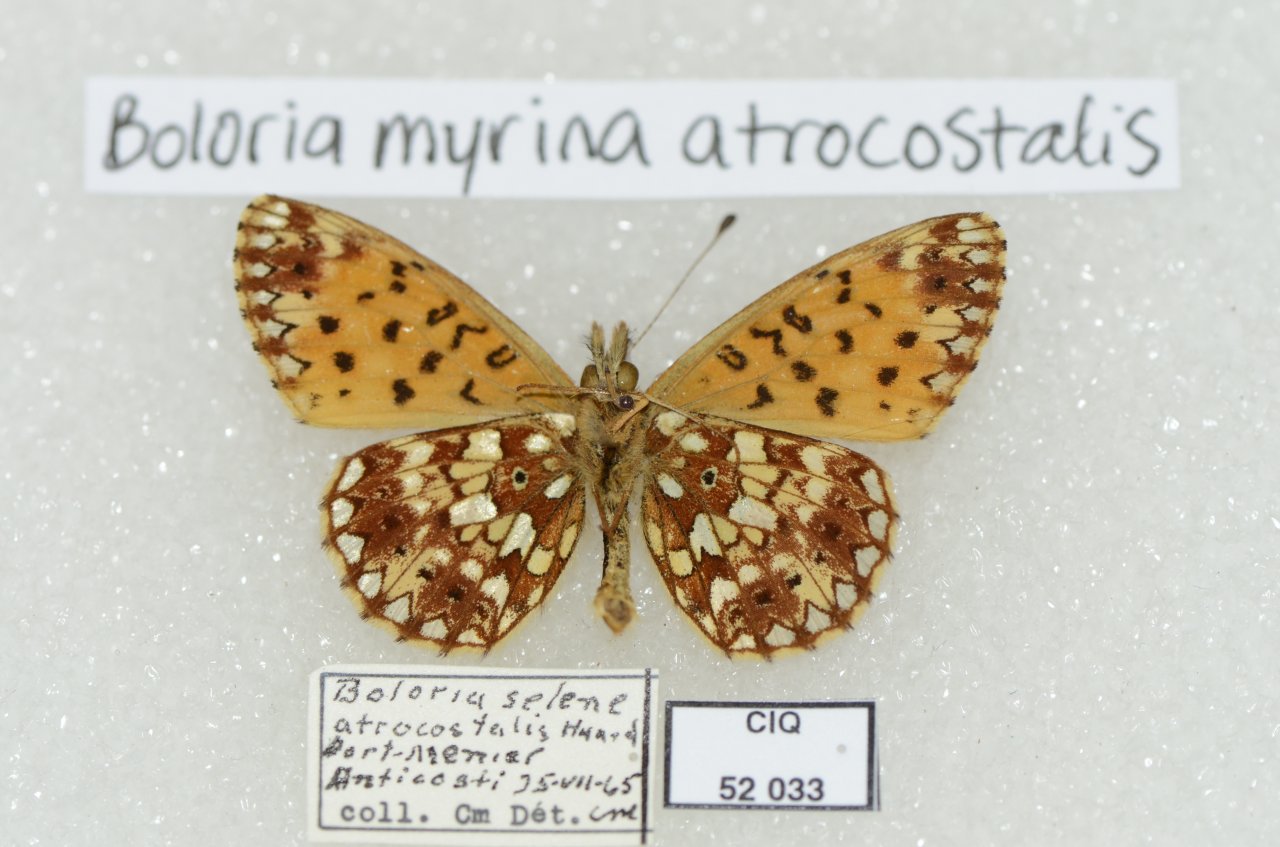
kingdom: Animalia
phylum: Arthropoda
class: Insecta
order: Lepidoptera
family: Nymphalidae
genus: Boloria
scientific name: Boloria selene
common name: Silver-bordered Fritillary
